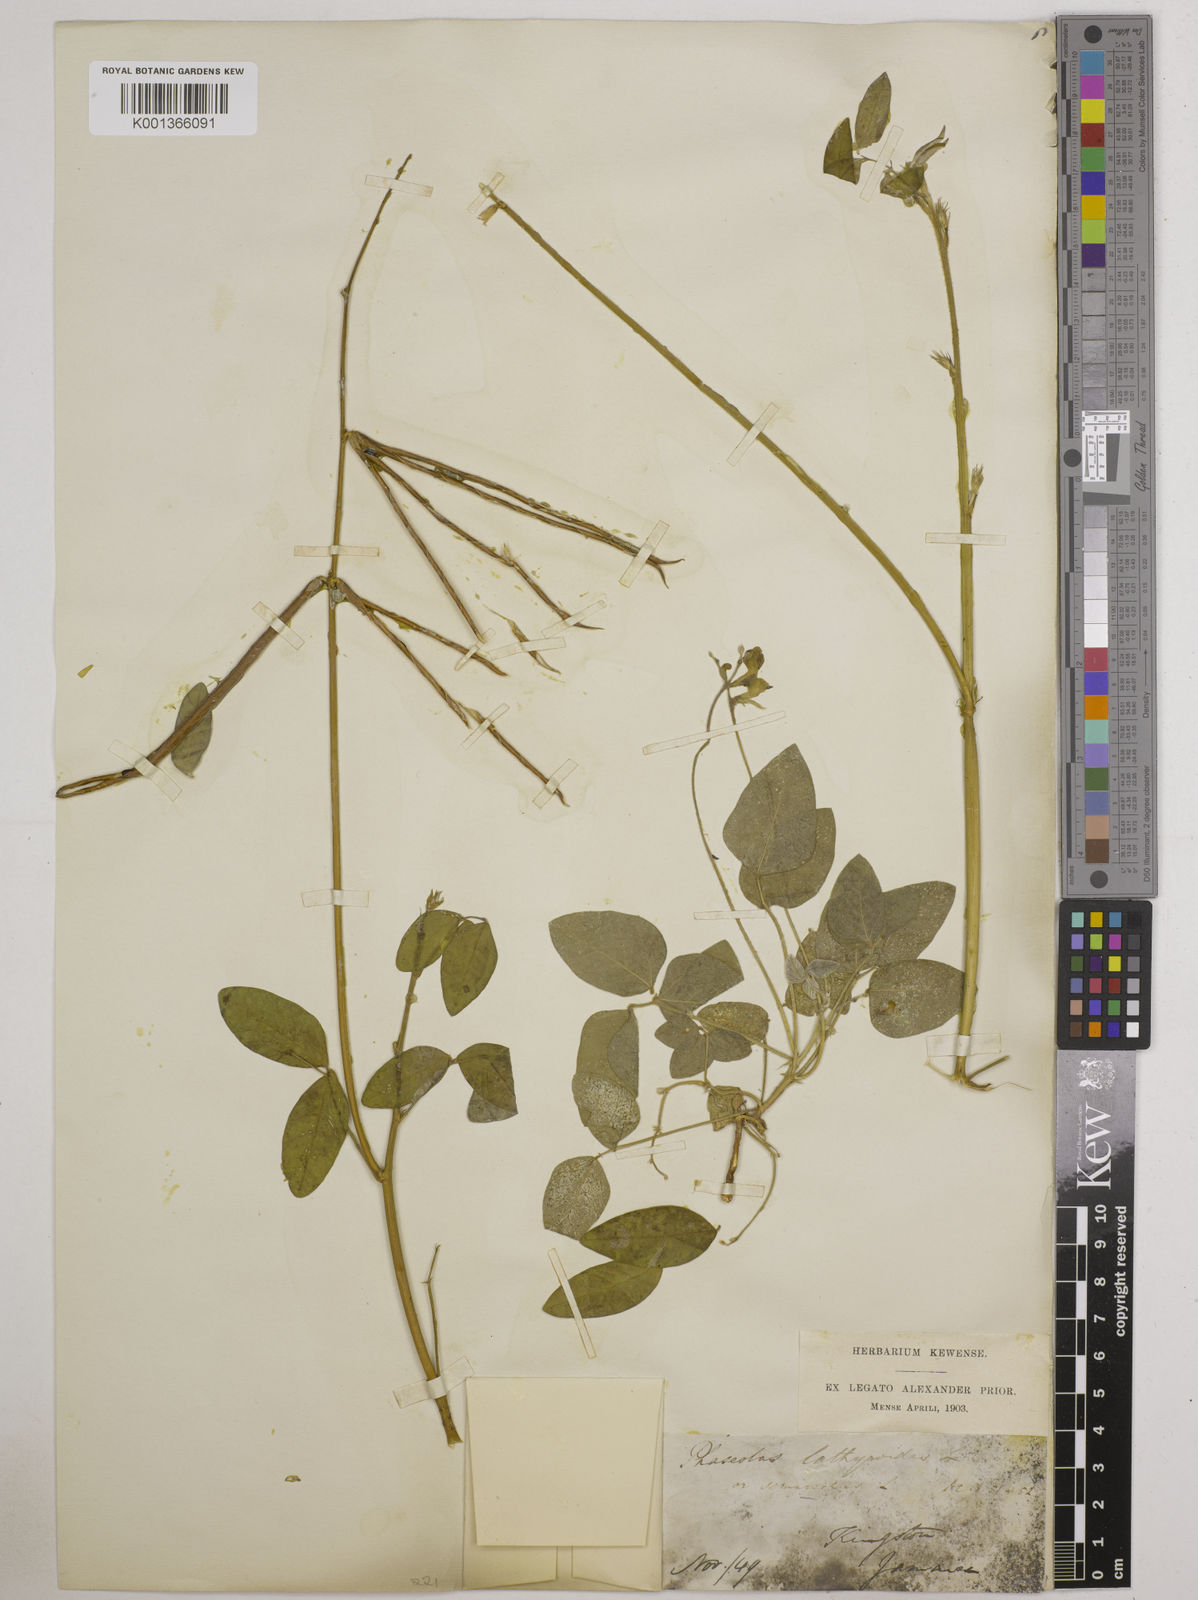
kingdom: Plantae
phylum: Tracheophyta
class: Magnoliopsida
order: Fabales
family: Fabaceae
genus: Macroptilium
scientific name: Macroptilium lathyroides
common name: Wild bushbean
